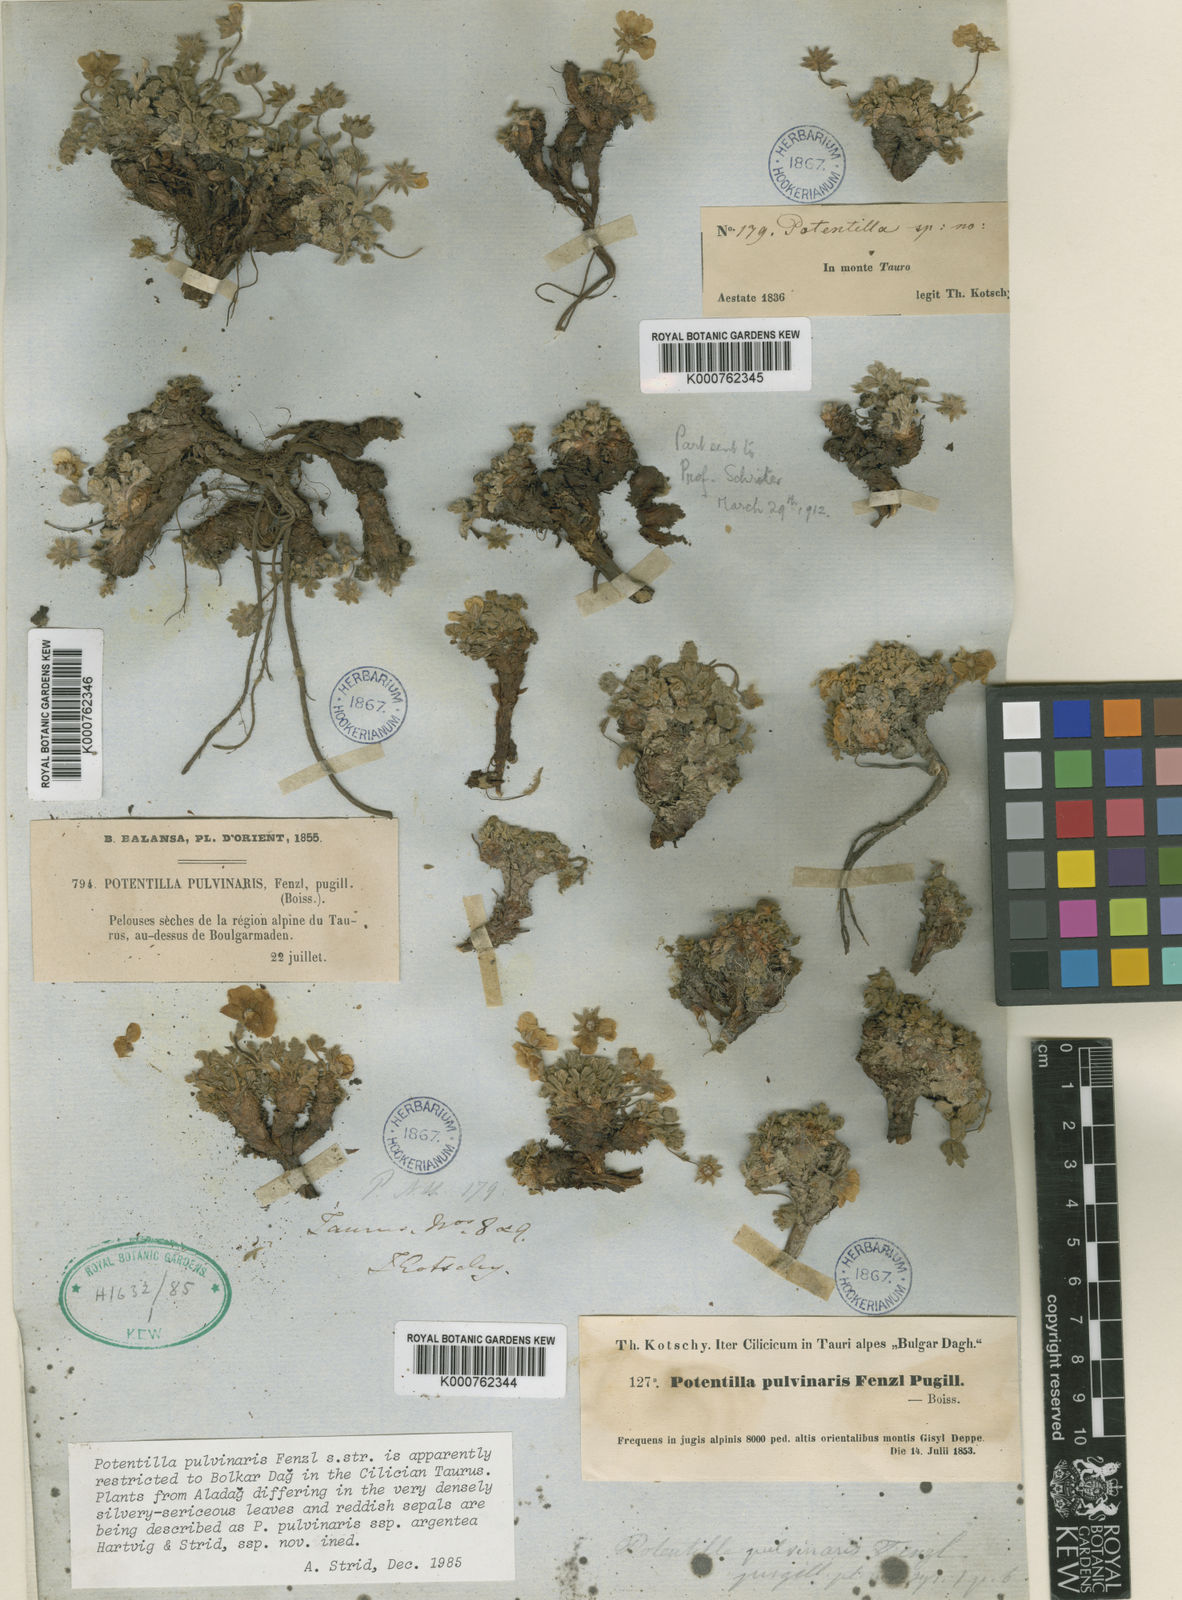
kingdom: Plantae
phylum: Tracheophyta
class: Magnoliopsida
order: Rosales
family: Rosaceae
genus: Potentilla
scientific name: Potentilla pulvinaris
